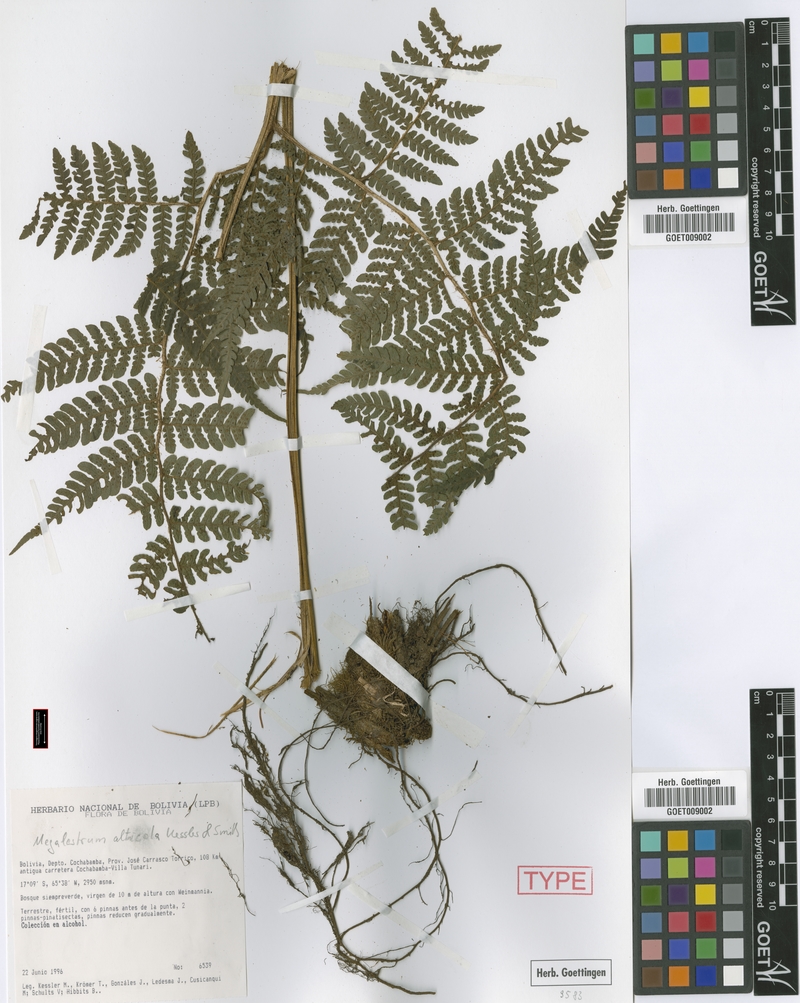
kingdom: Plantae
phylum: Tracheophyta
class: Polypodiopsida
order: Polypodiales
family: Dryopteridaceae
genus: Megalastrum
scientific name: Megalastrum alticola
